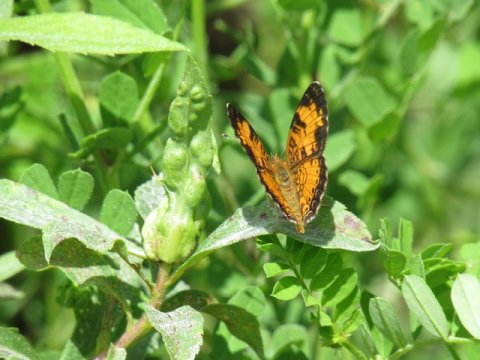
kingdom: Animalia
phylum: Arthropoda
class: Insecta
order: Lepidoptera
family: Nymphalidae
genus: Phyciodes
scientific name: Phyciodes tharos
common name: Pearl Crescent
